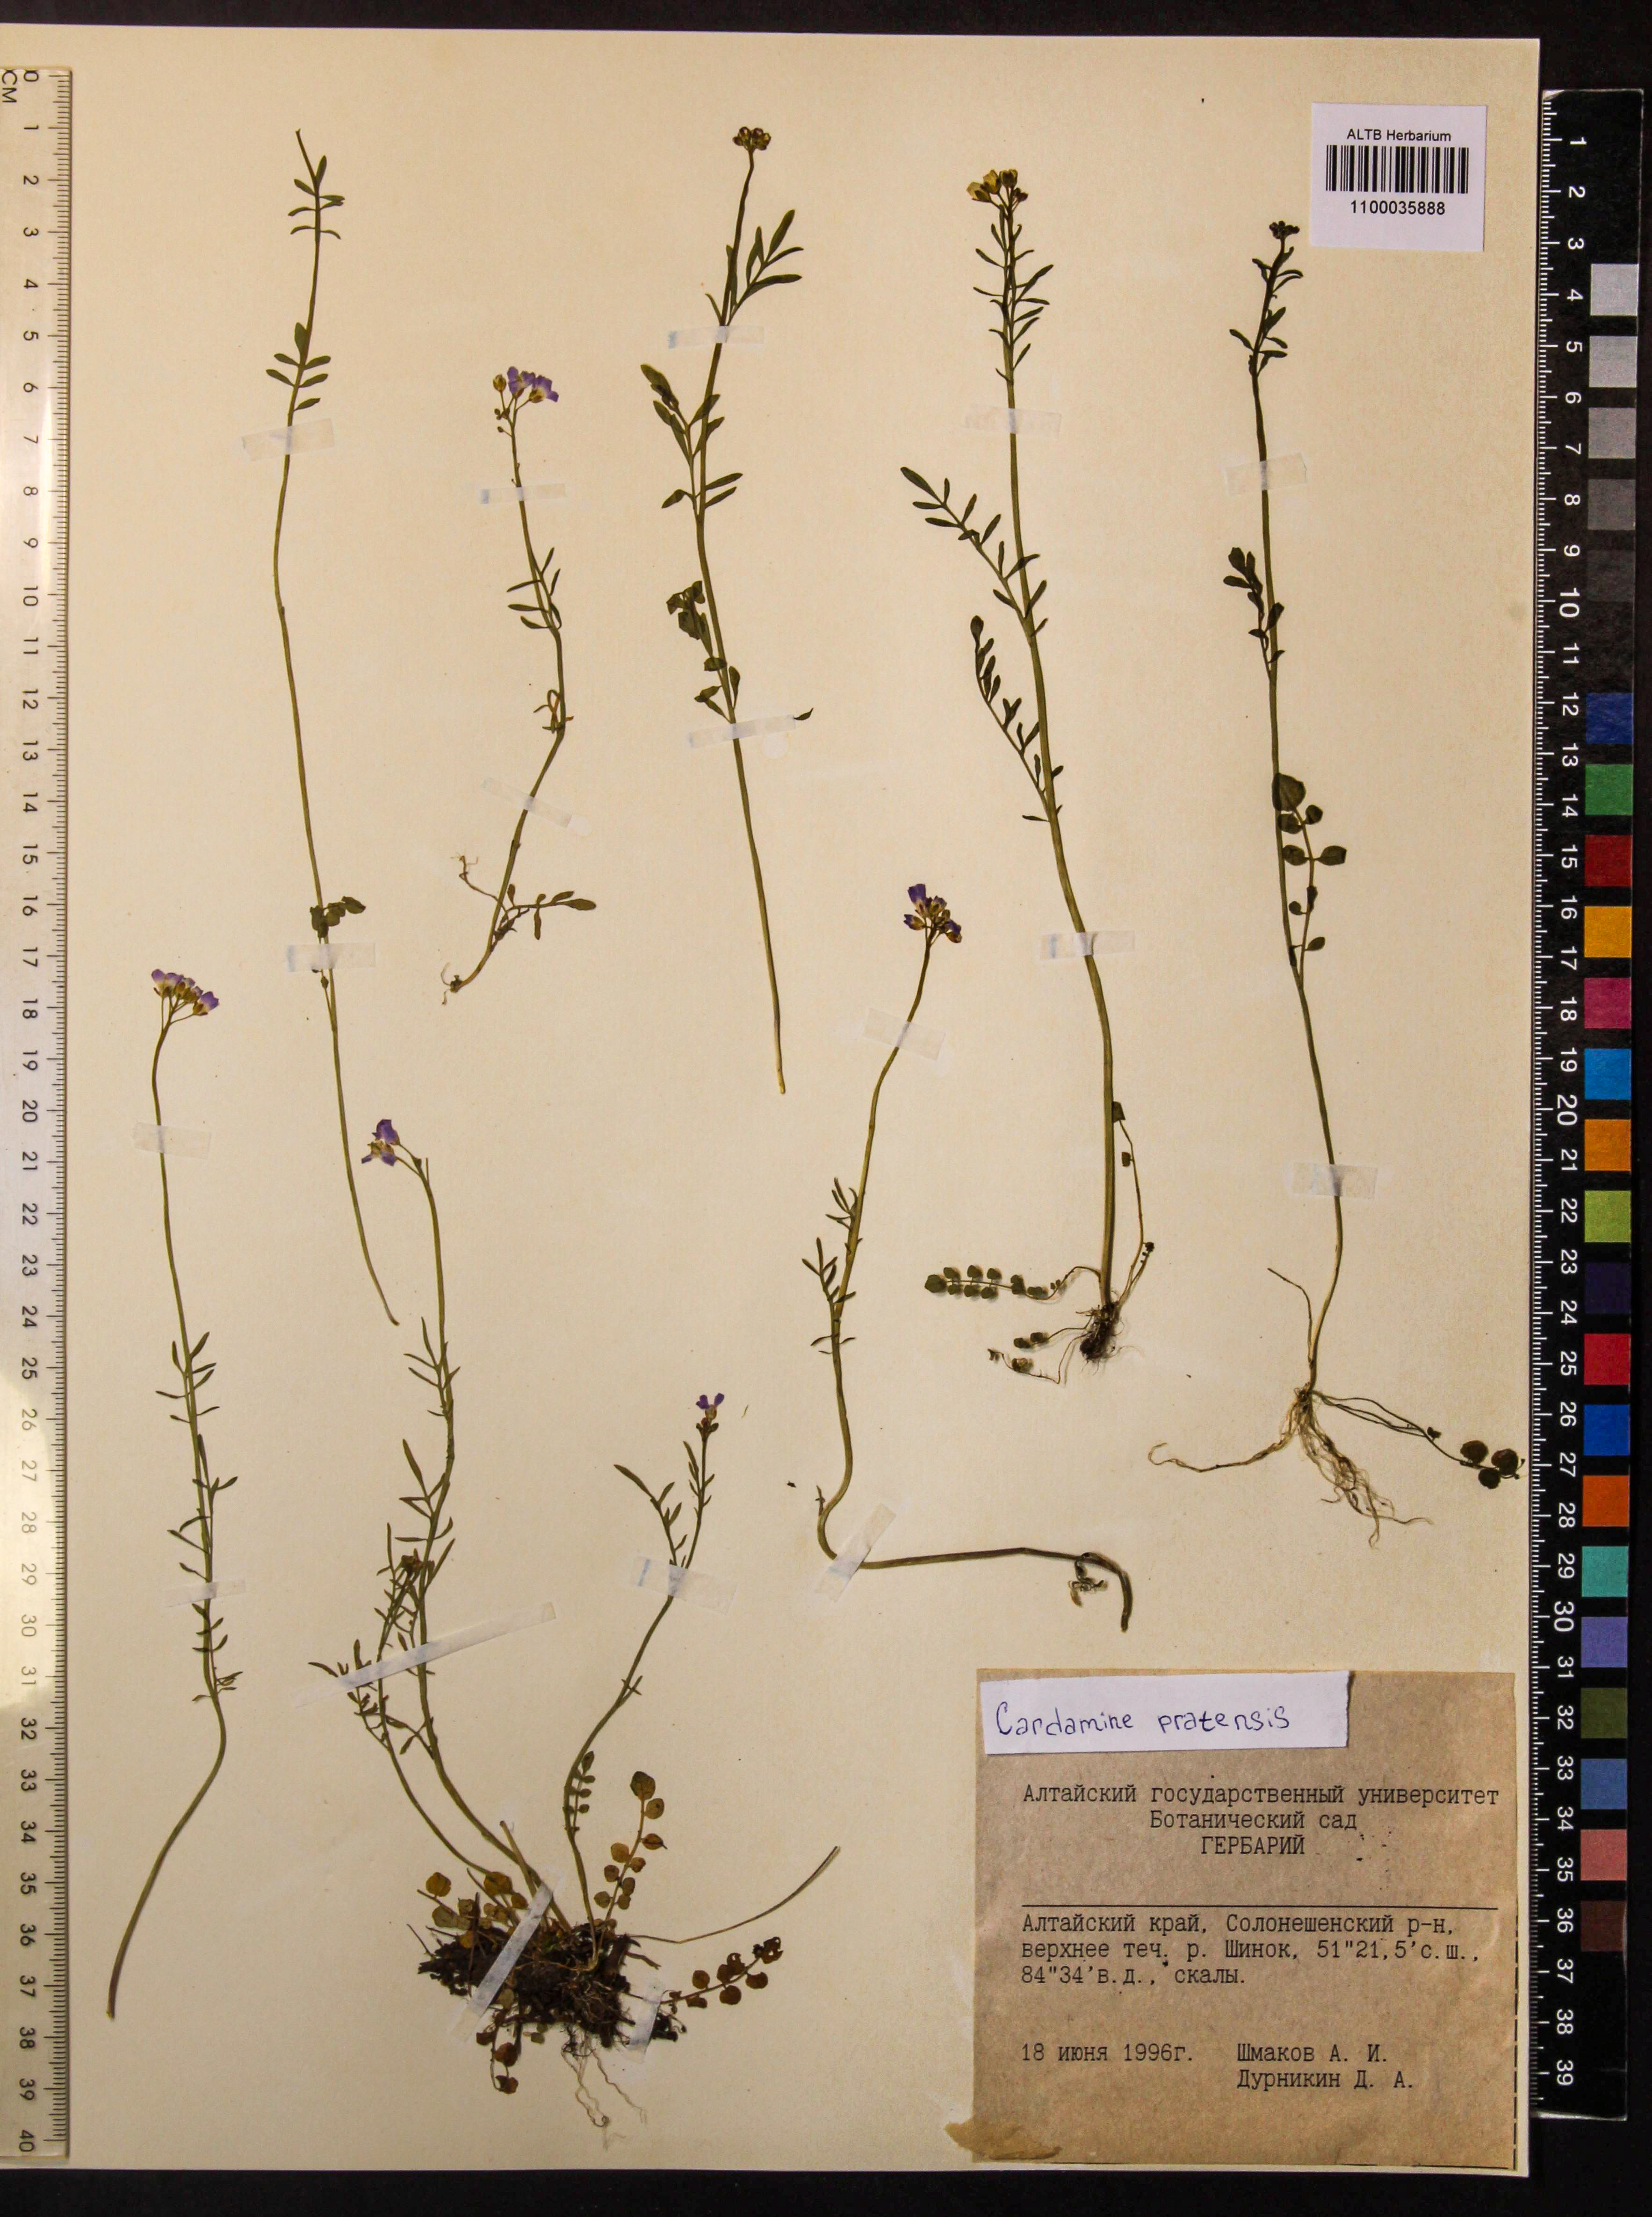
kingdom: Plantae
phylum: Tracheophyta
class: Magnoliopsida
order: Brassicales
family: Brassicaceae
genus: Cardamine
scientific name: Cardamine pratensis
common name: Cuckoo flower
